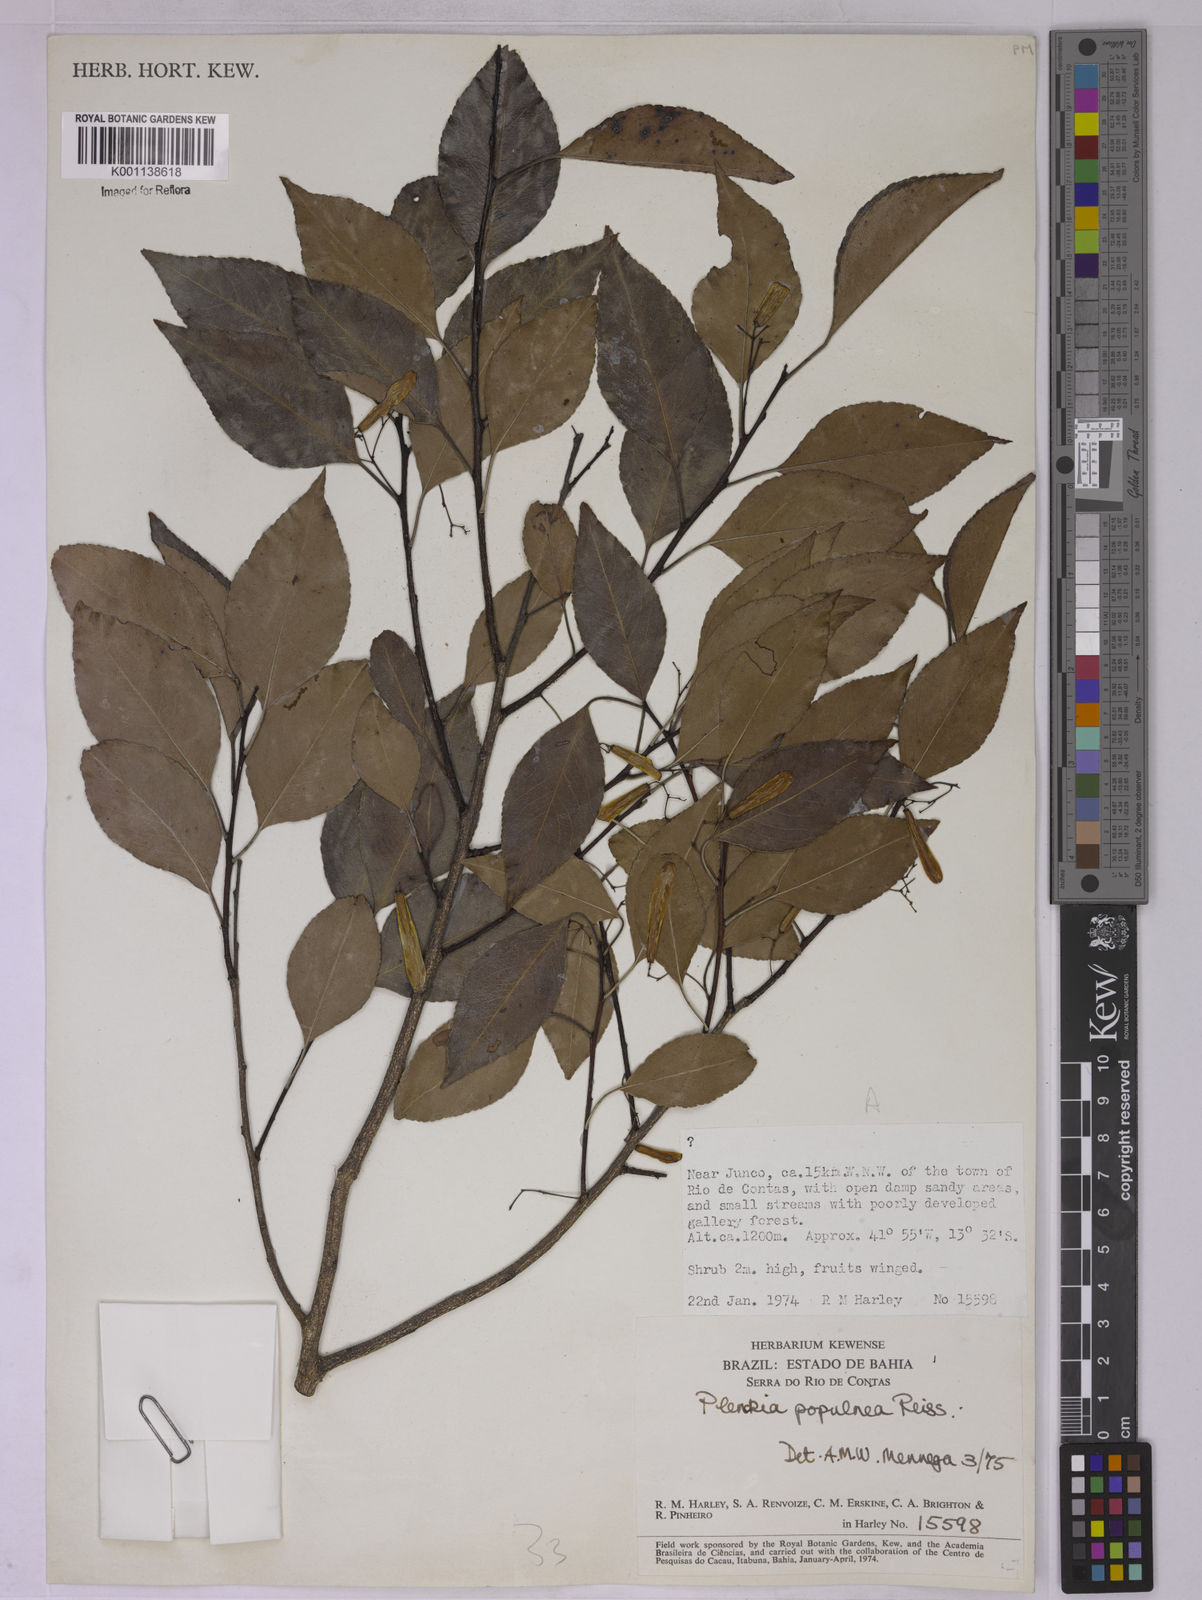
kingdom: Plantae
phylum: Tracheophyta
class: Magnoliopsida
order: Celastrales
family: Celastraceae
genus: Plenckia
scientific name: Plenckia populnea
